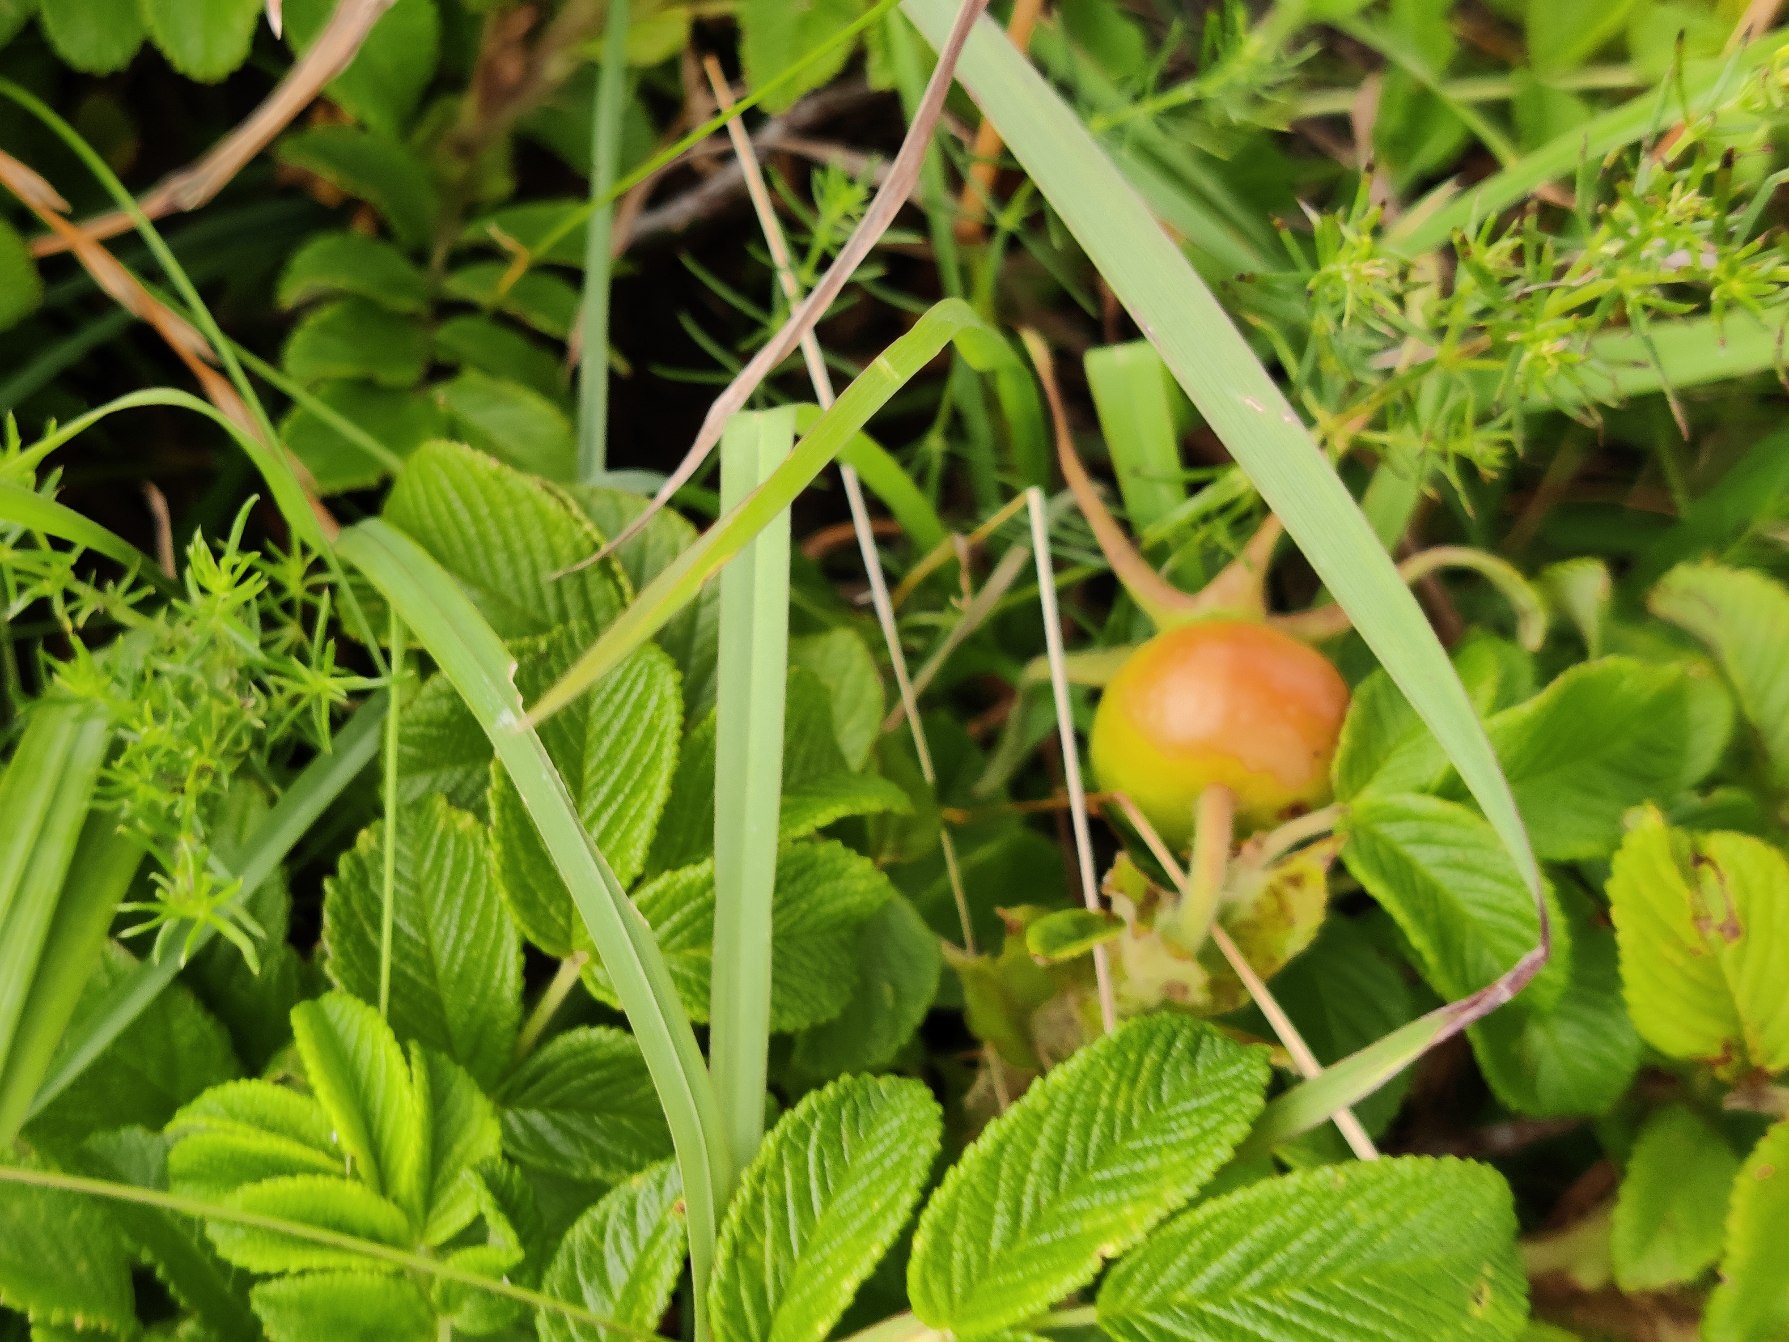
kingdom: Plantae
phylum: Tracheophyta
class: Magnoliopsida
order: Rosales
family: Rosaceae
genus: Rosa
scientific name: Rosa rugosa
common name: Rynket rose
